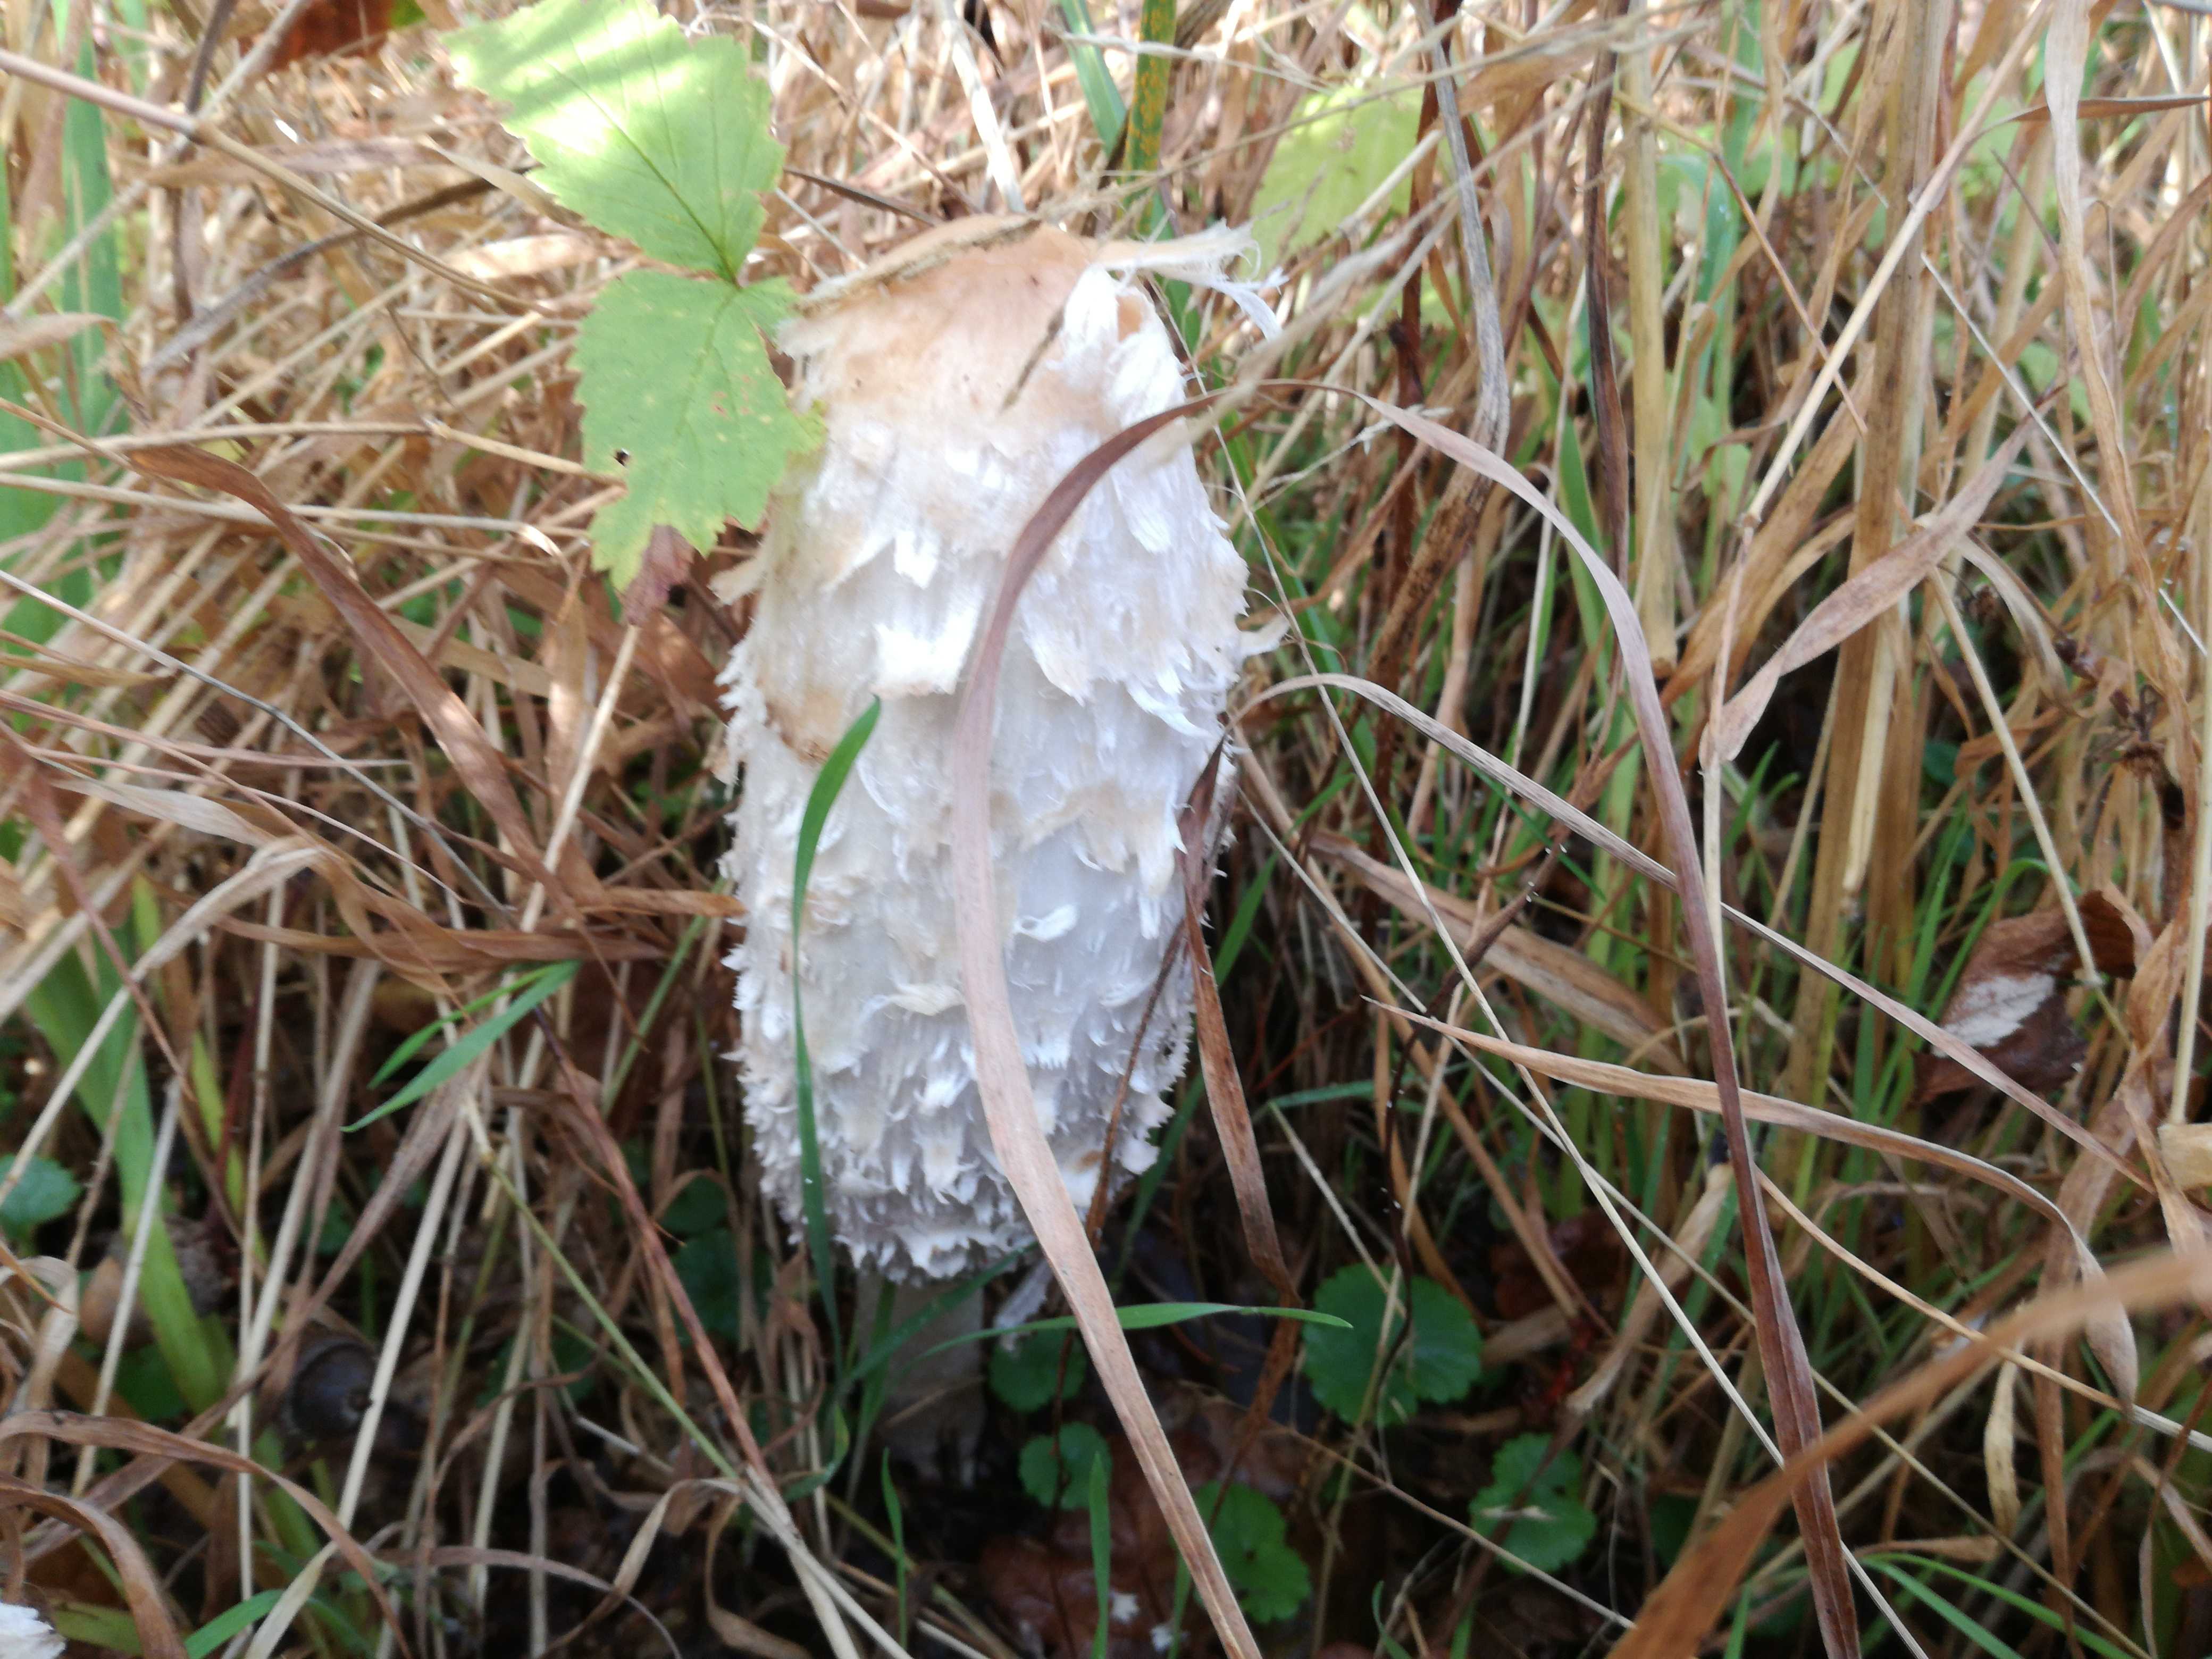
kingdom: Fungi
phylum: Basidiomycota
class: Agaricomycetes
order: Agaricales
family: Agaricaceae
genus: Coprinus
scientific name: Coprinus comatus
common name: stor parykhat
